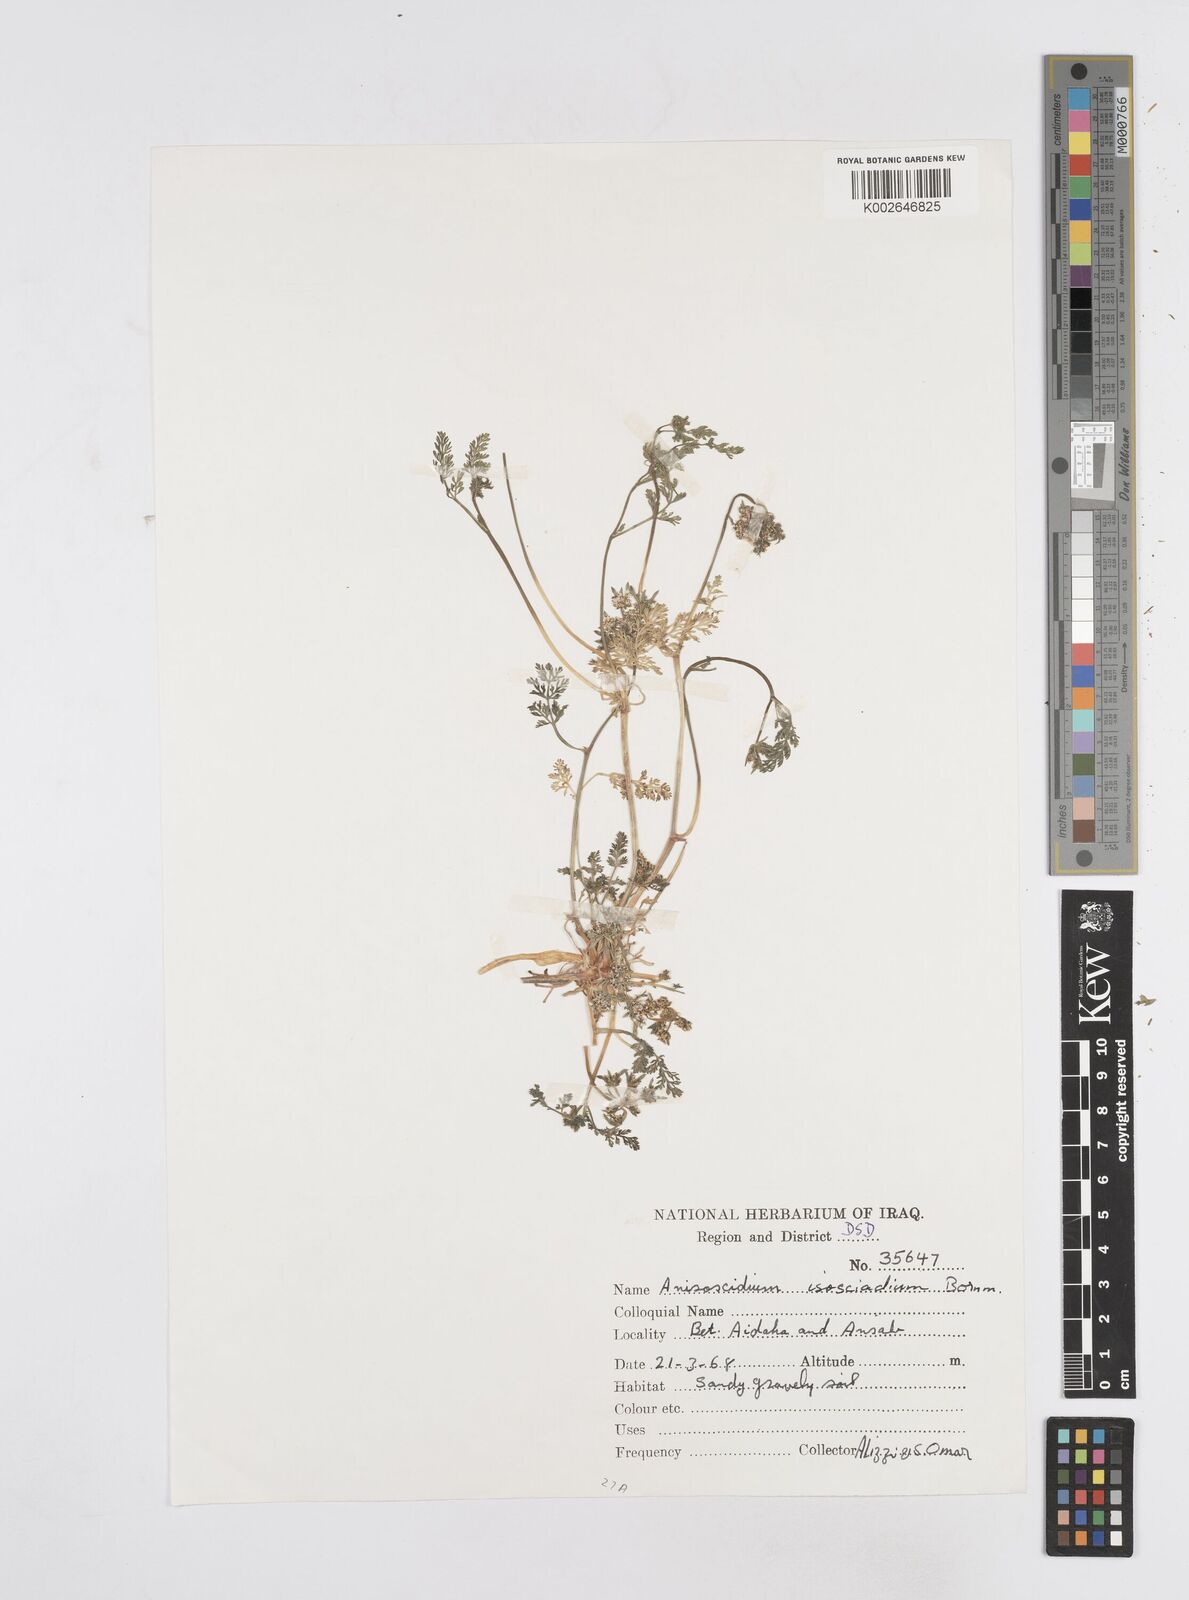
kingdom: Plantae
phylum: Tracheophyta
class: Magnoliopsida
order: Apiales
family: Apiaceae
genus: Anisosciadium
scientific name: Anisosciadium isosciadium
